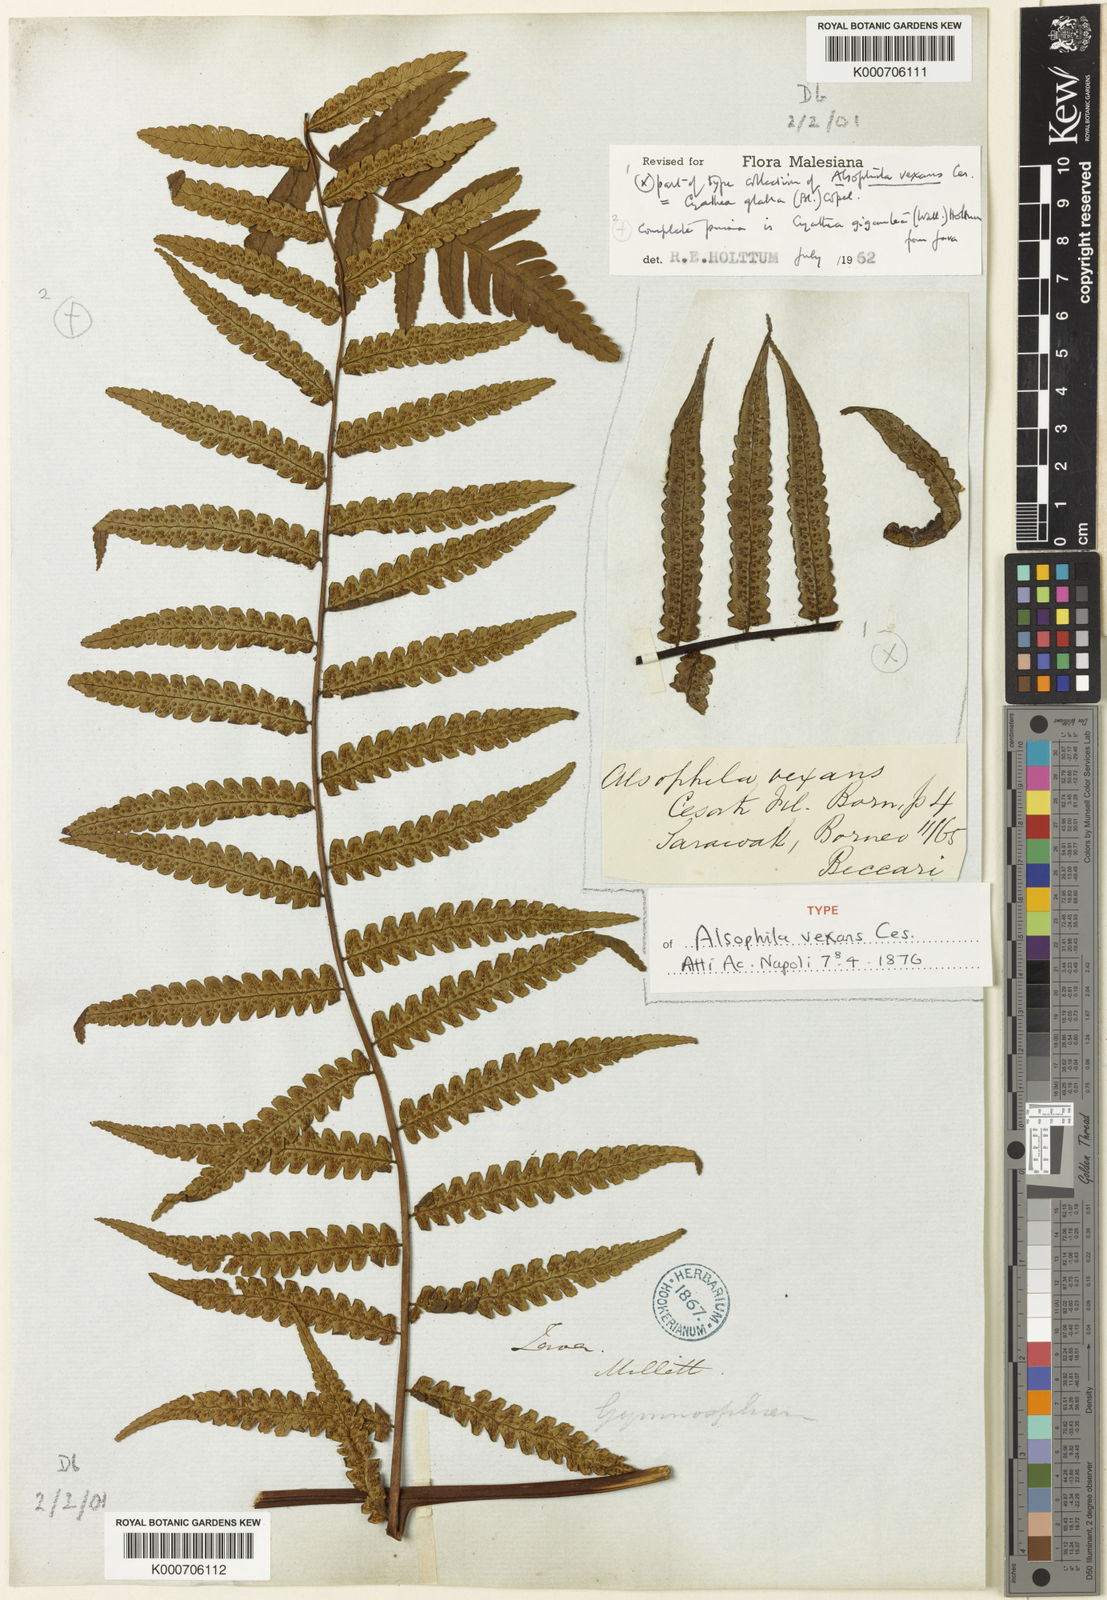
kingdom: Plantae
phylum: Tracheophyta
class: Polypodiopsida
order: Cyatheales
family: Cyatheaceae
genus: Gymnosphaera
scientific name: Gymnosphaera glabra
